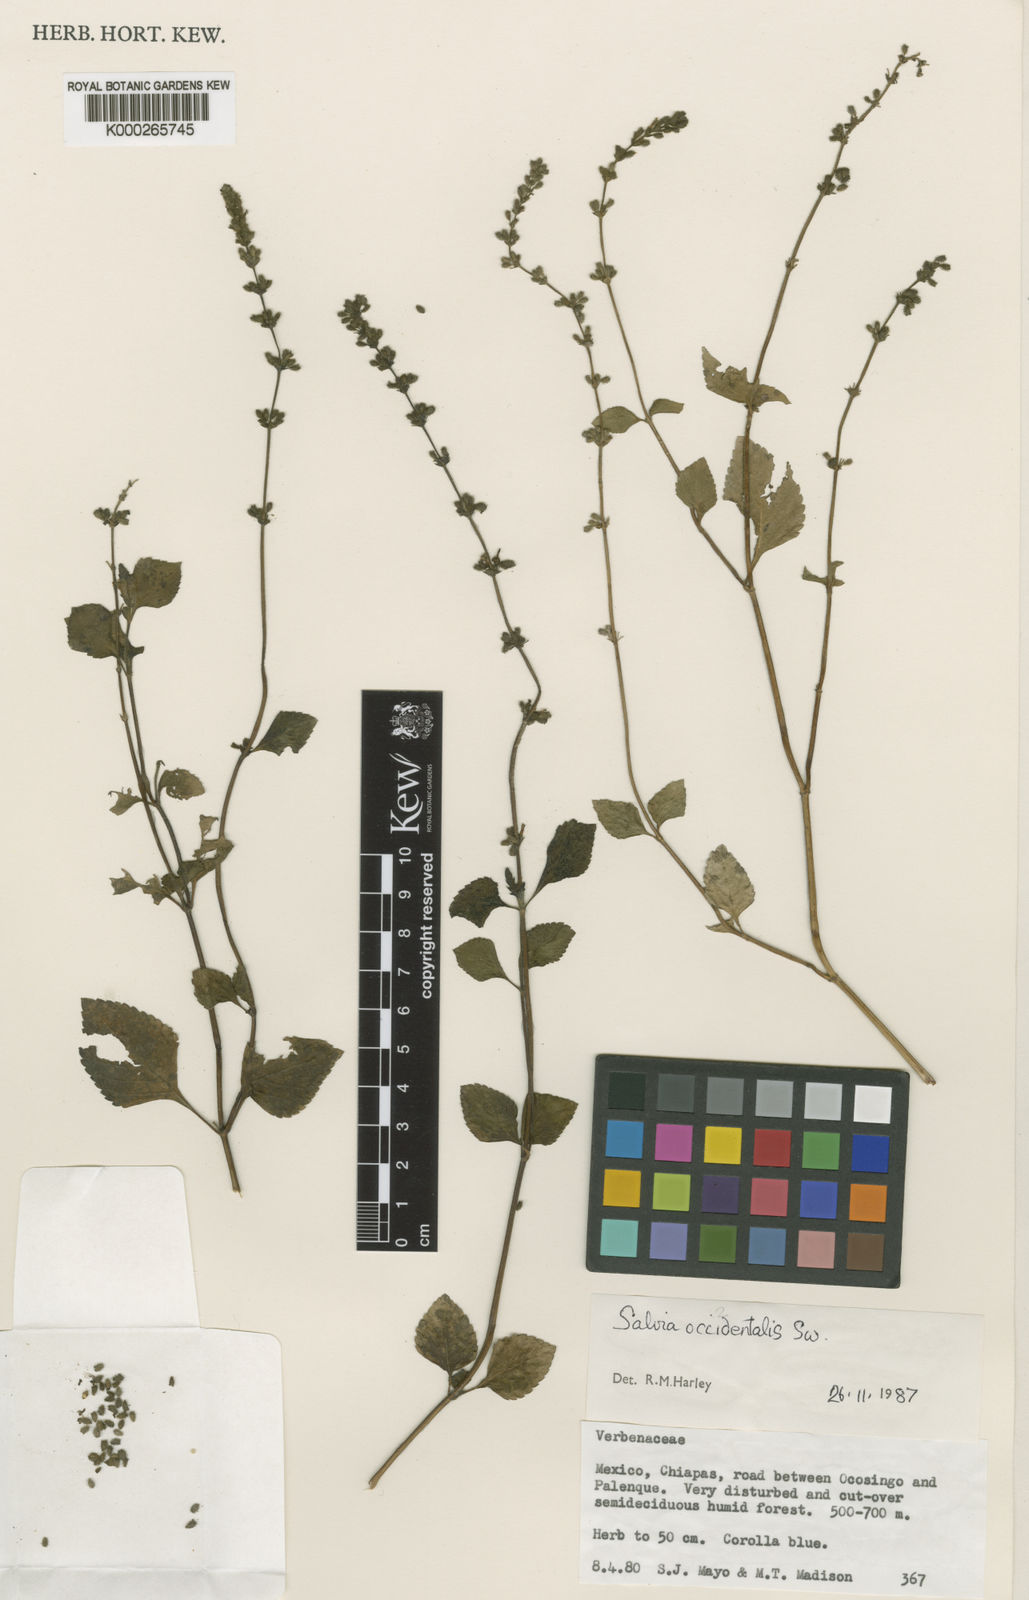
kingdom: Plantae
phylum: Tracheophyta
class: Magnoliopsida
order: Lamiales
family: Lamiaceae
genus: Salvia
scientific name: Salvia occidentalis
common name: West indian sage
